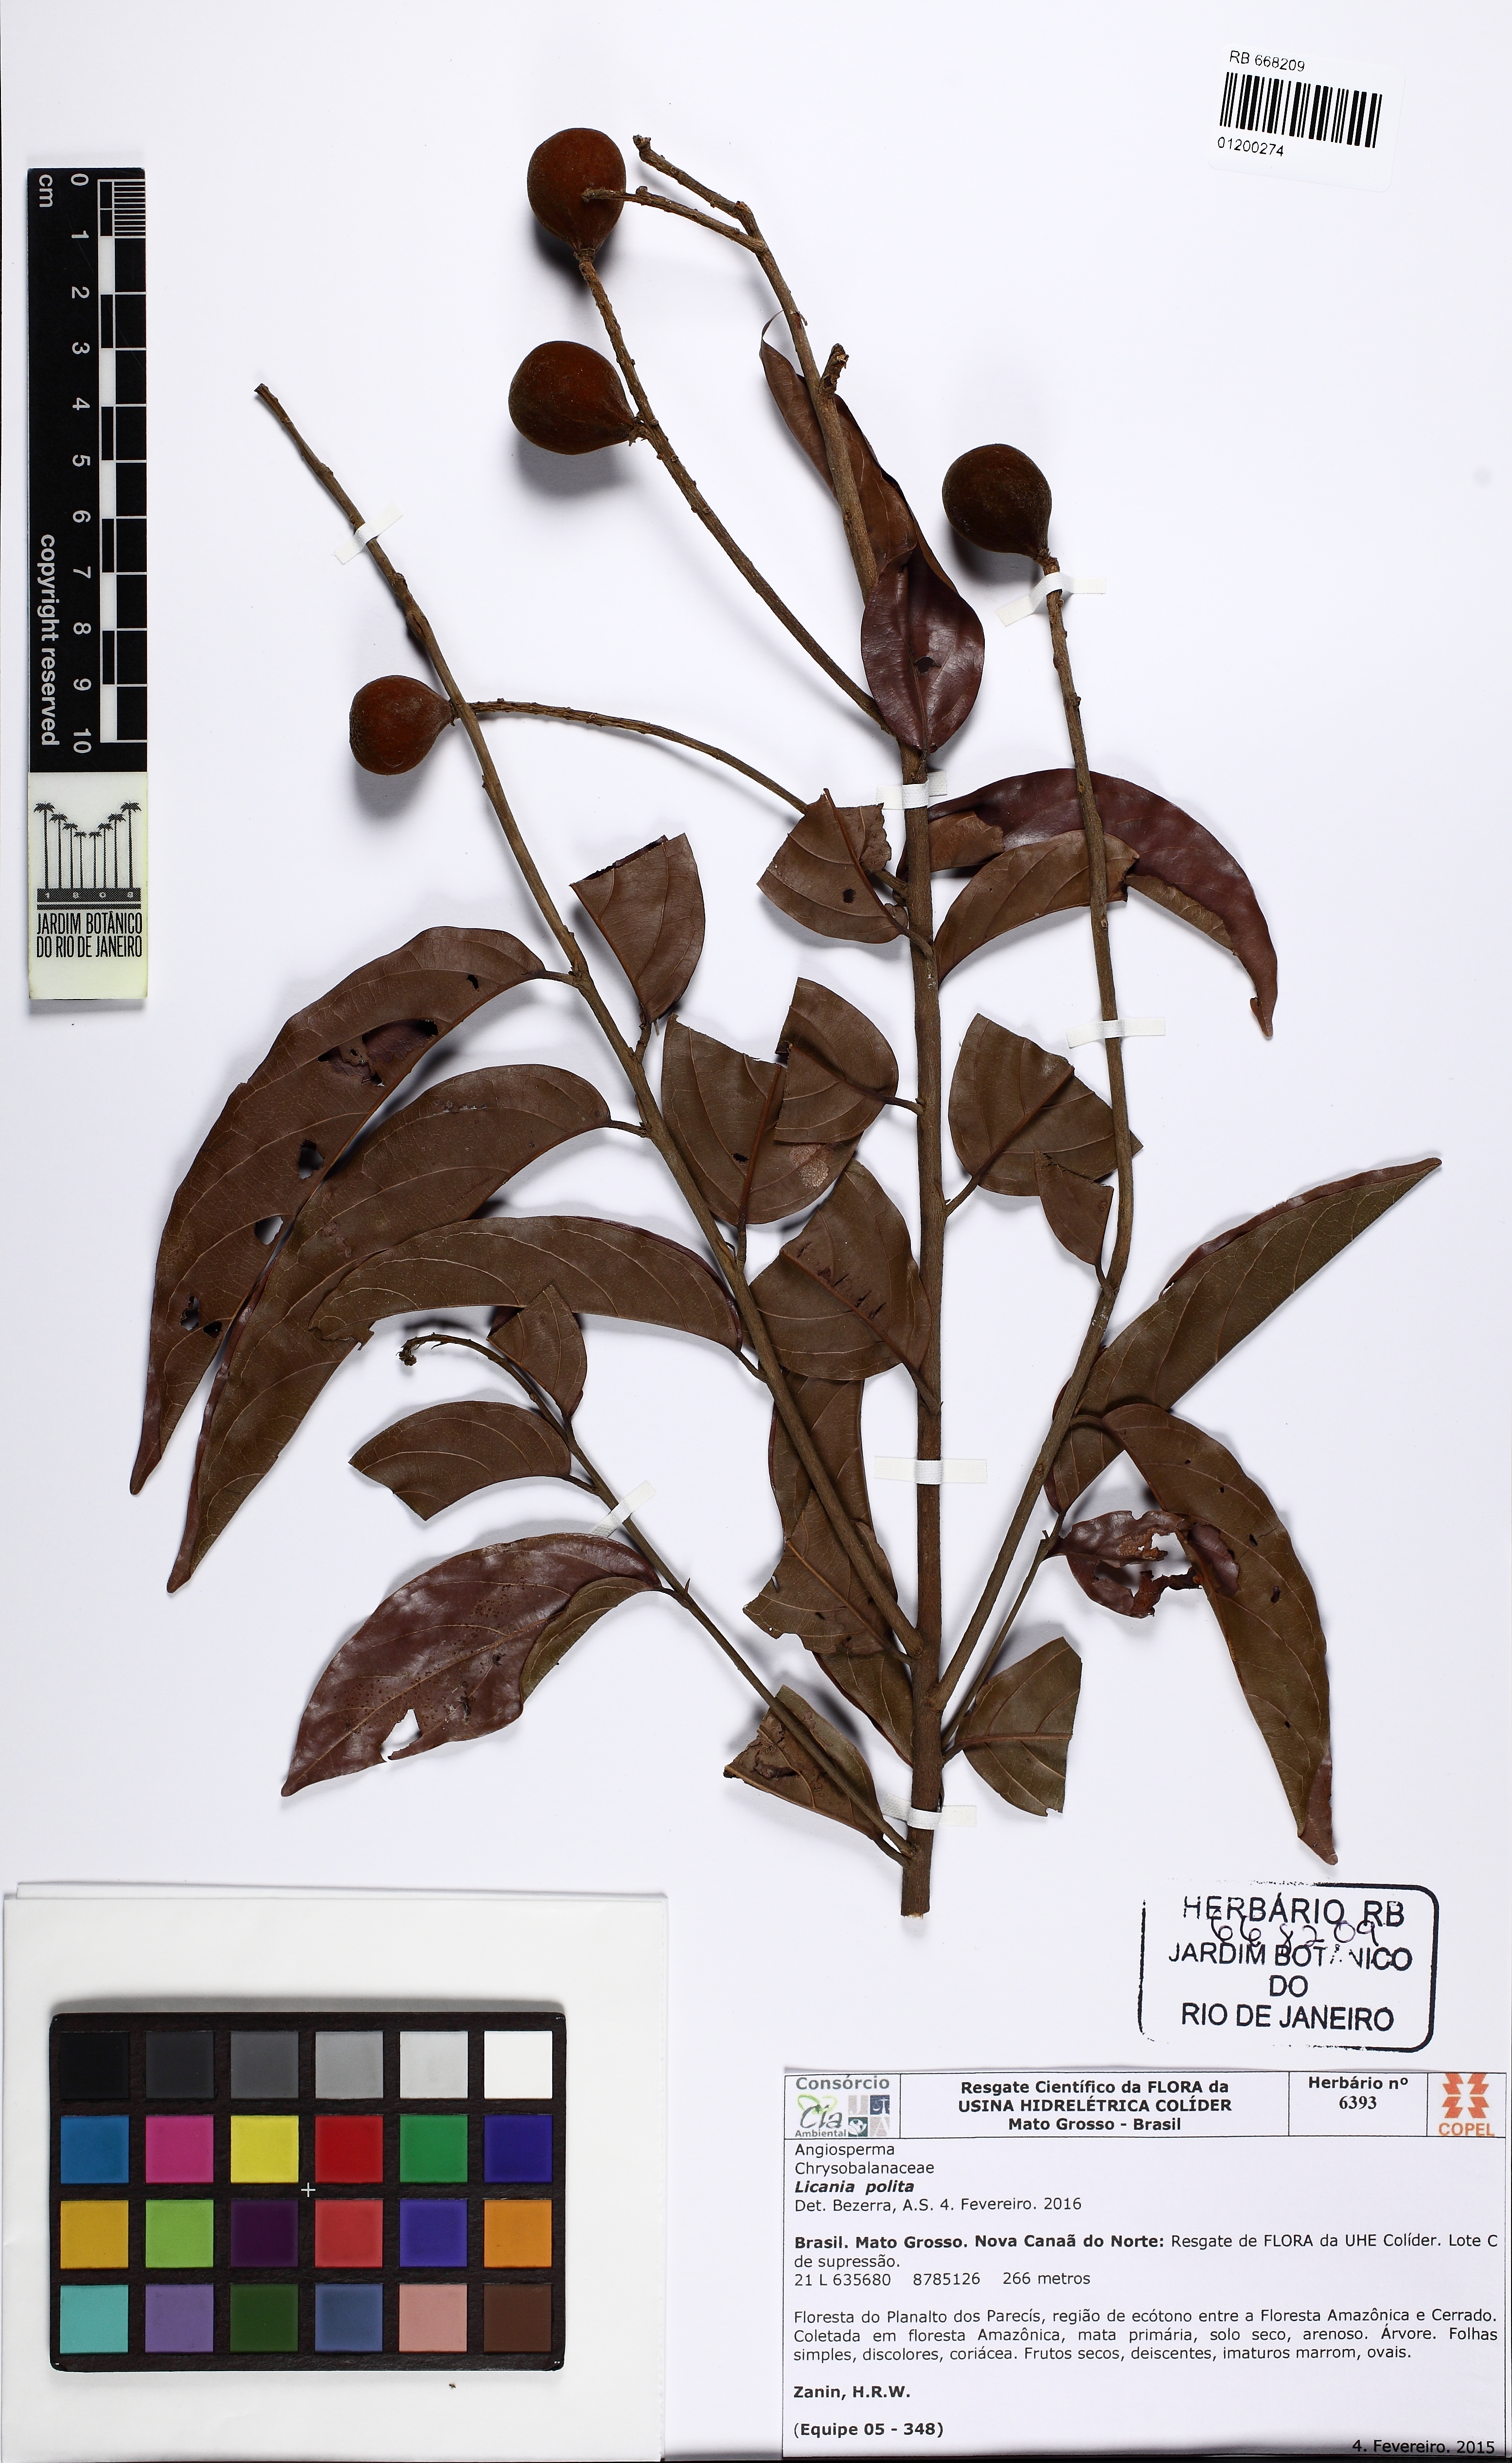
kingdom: Plantae
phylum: Tracheophyta
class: Magnoliopsida
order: Malpighiales
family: Chrysobalanaceae
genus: Licania
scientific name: Licania polita
